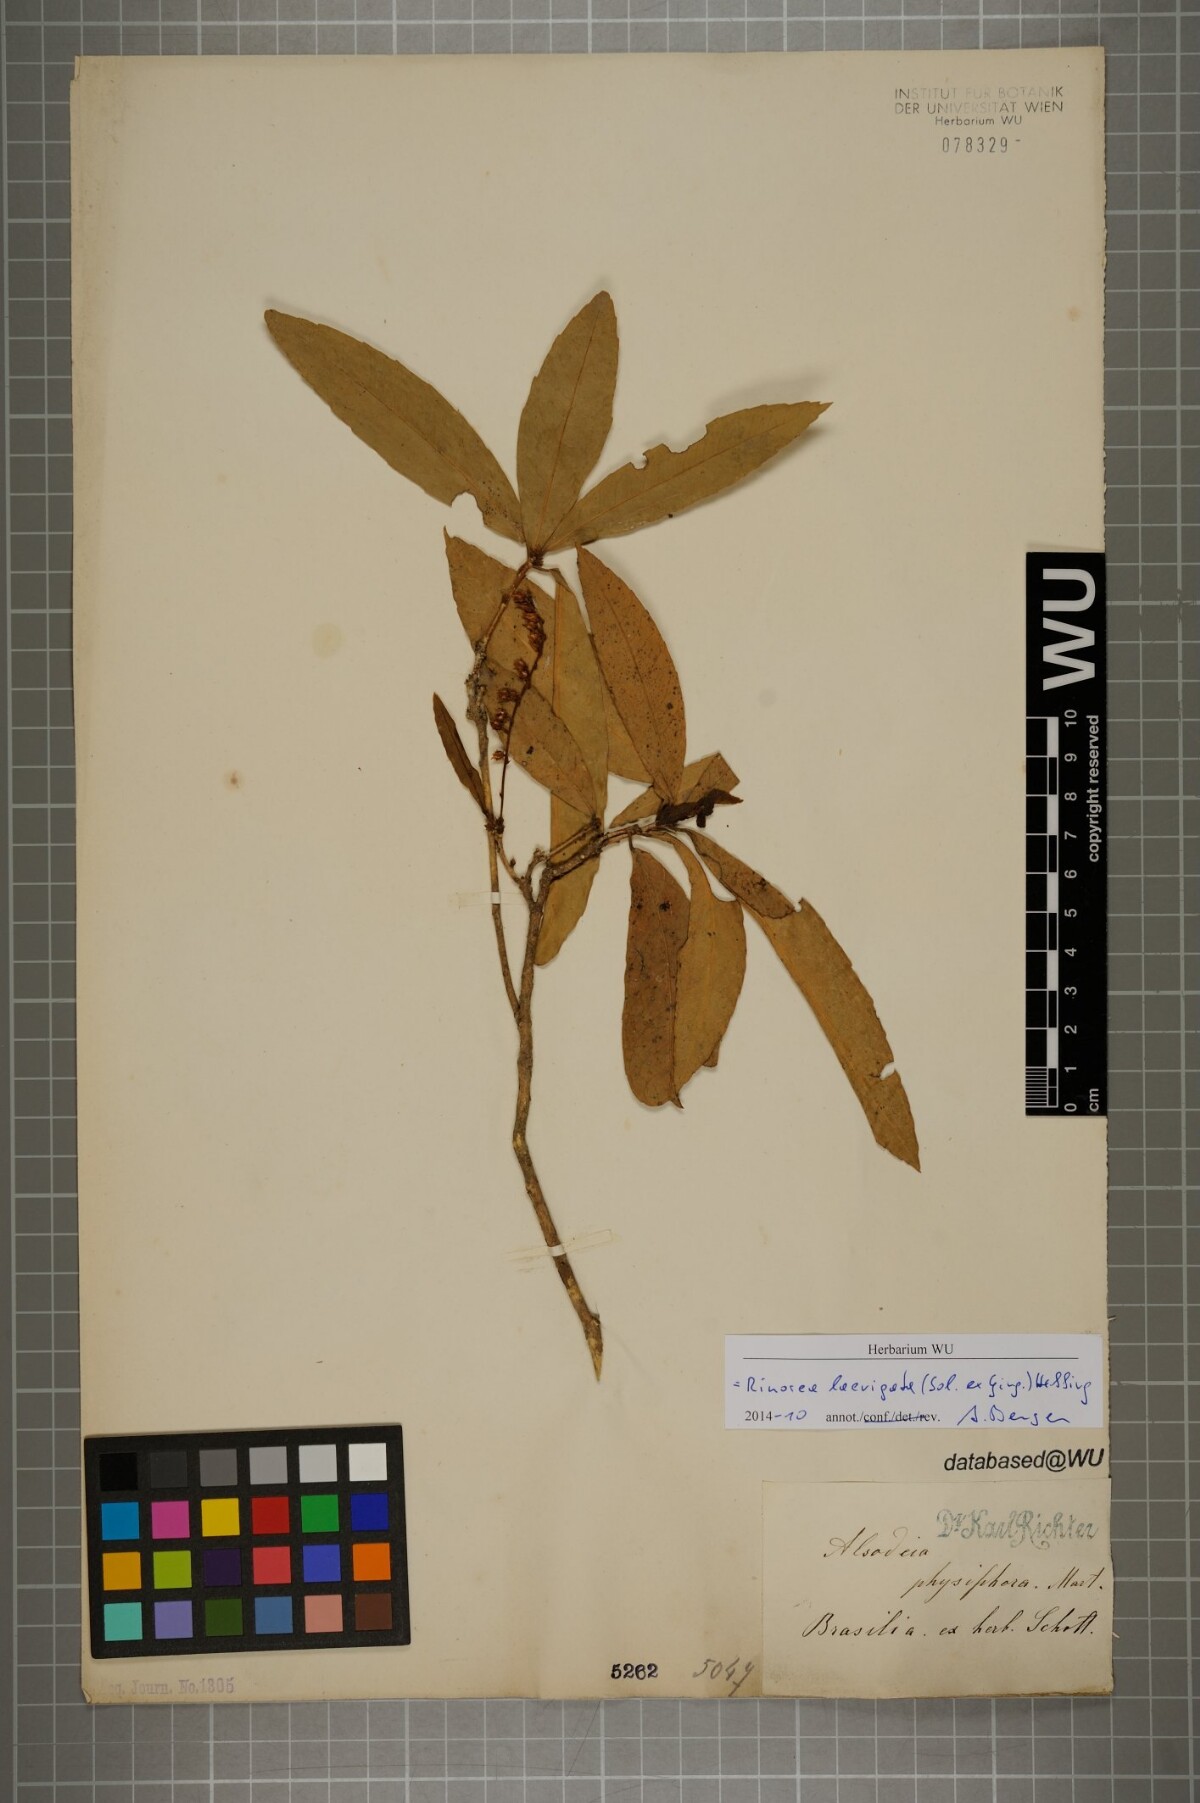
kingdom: Plantae
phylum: Tracheophyta
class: Magnoliopsida
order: Malpighiales
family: Violaceae
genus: Rinorea
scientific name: Rinorea laevigata
